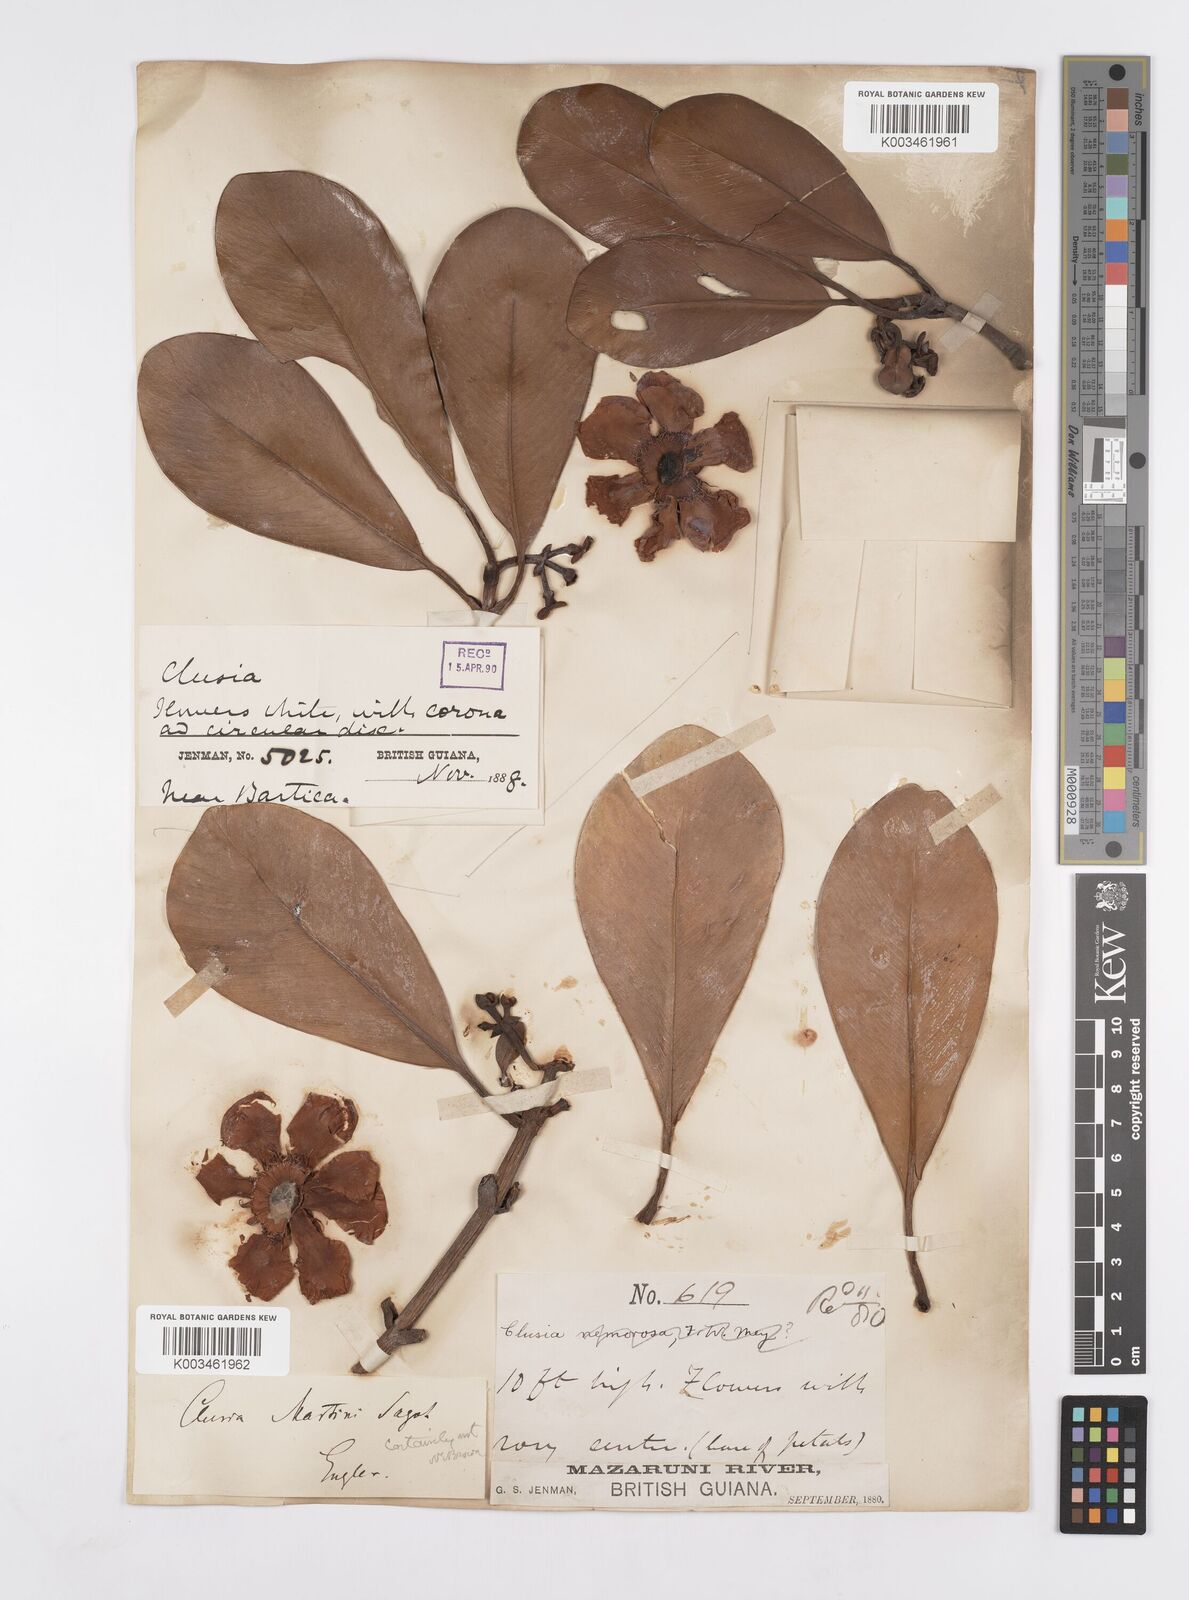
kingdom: Plantae
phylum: Tracheophyta
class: Magnoliopsida
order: Malpighiales
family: Clusiaceae
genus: Clusia
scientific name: Clusia palmicida
